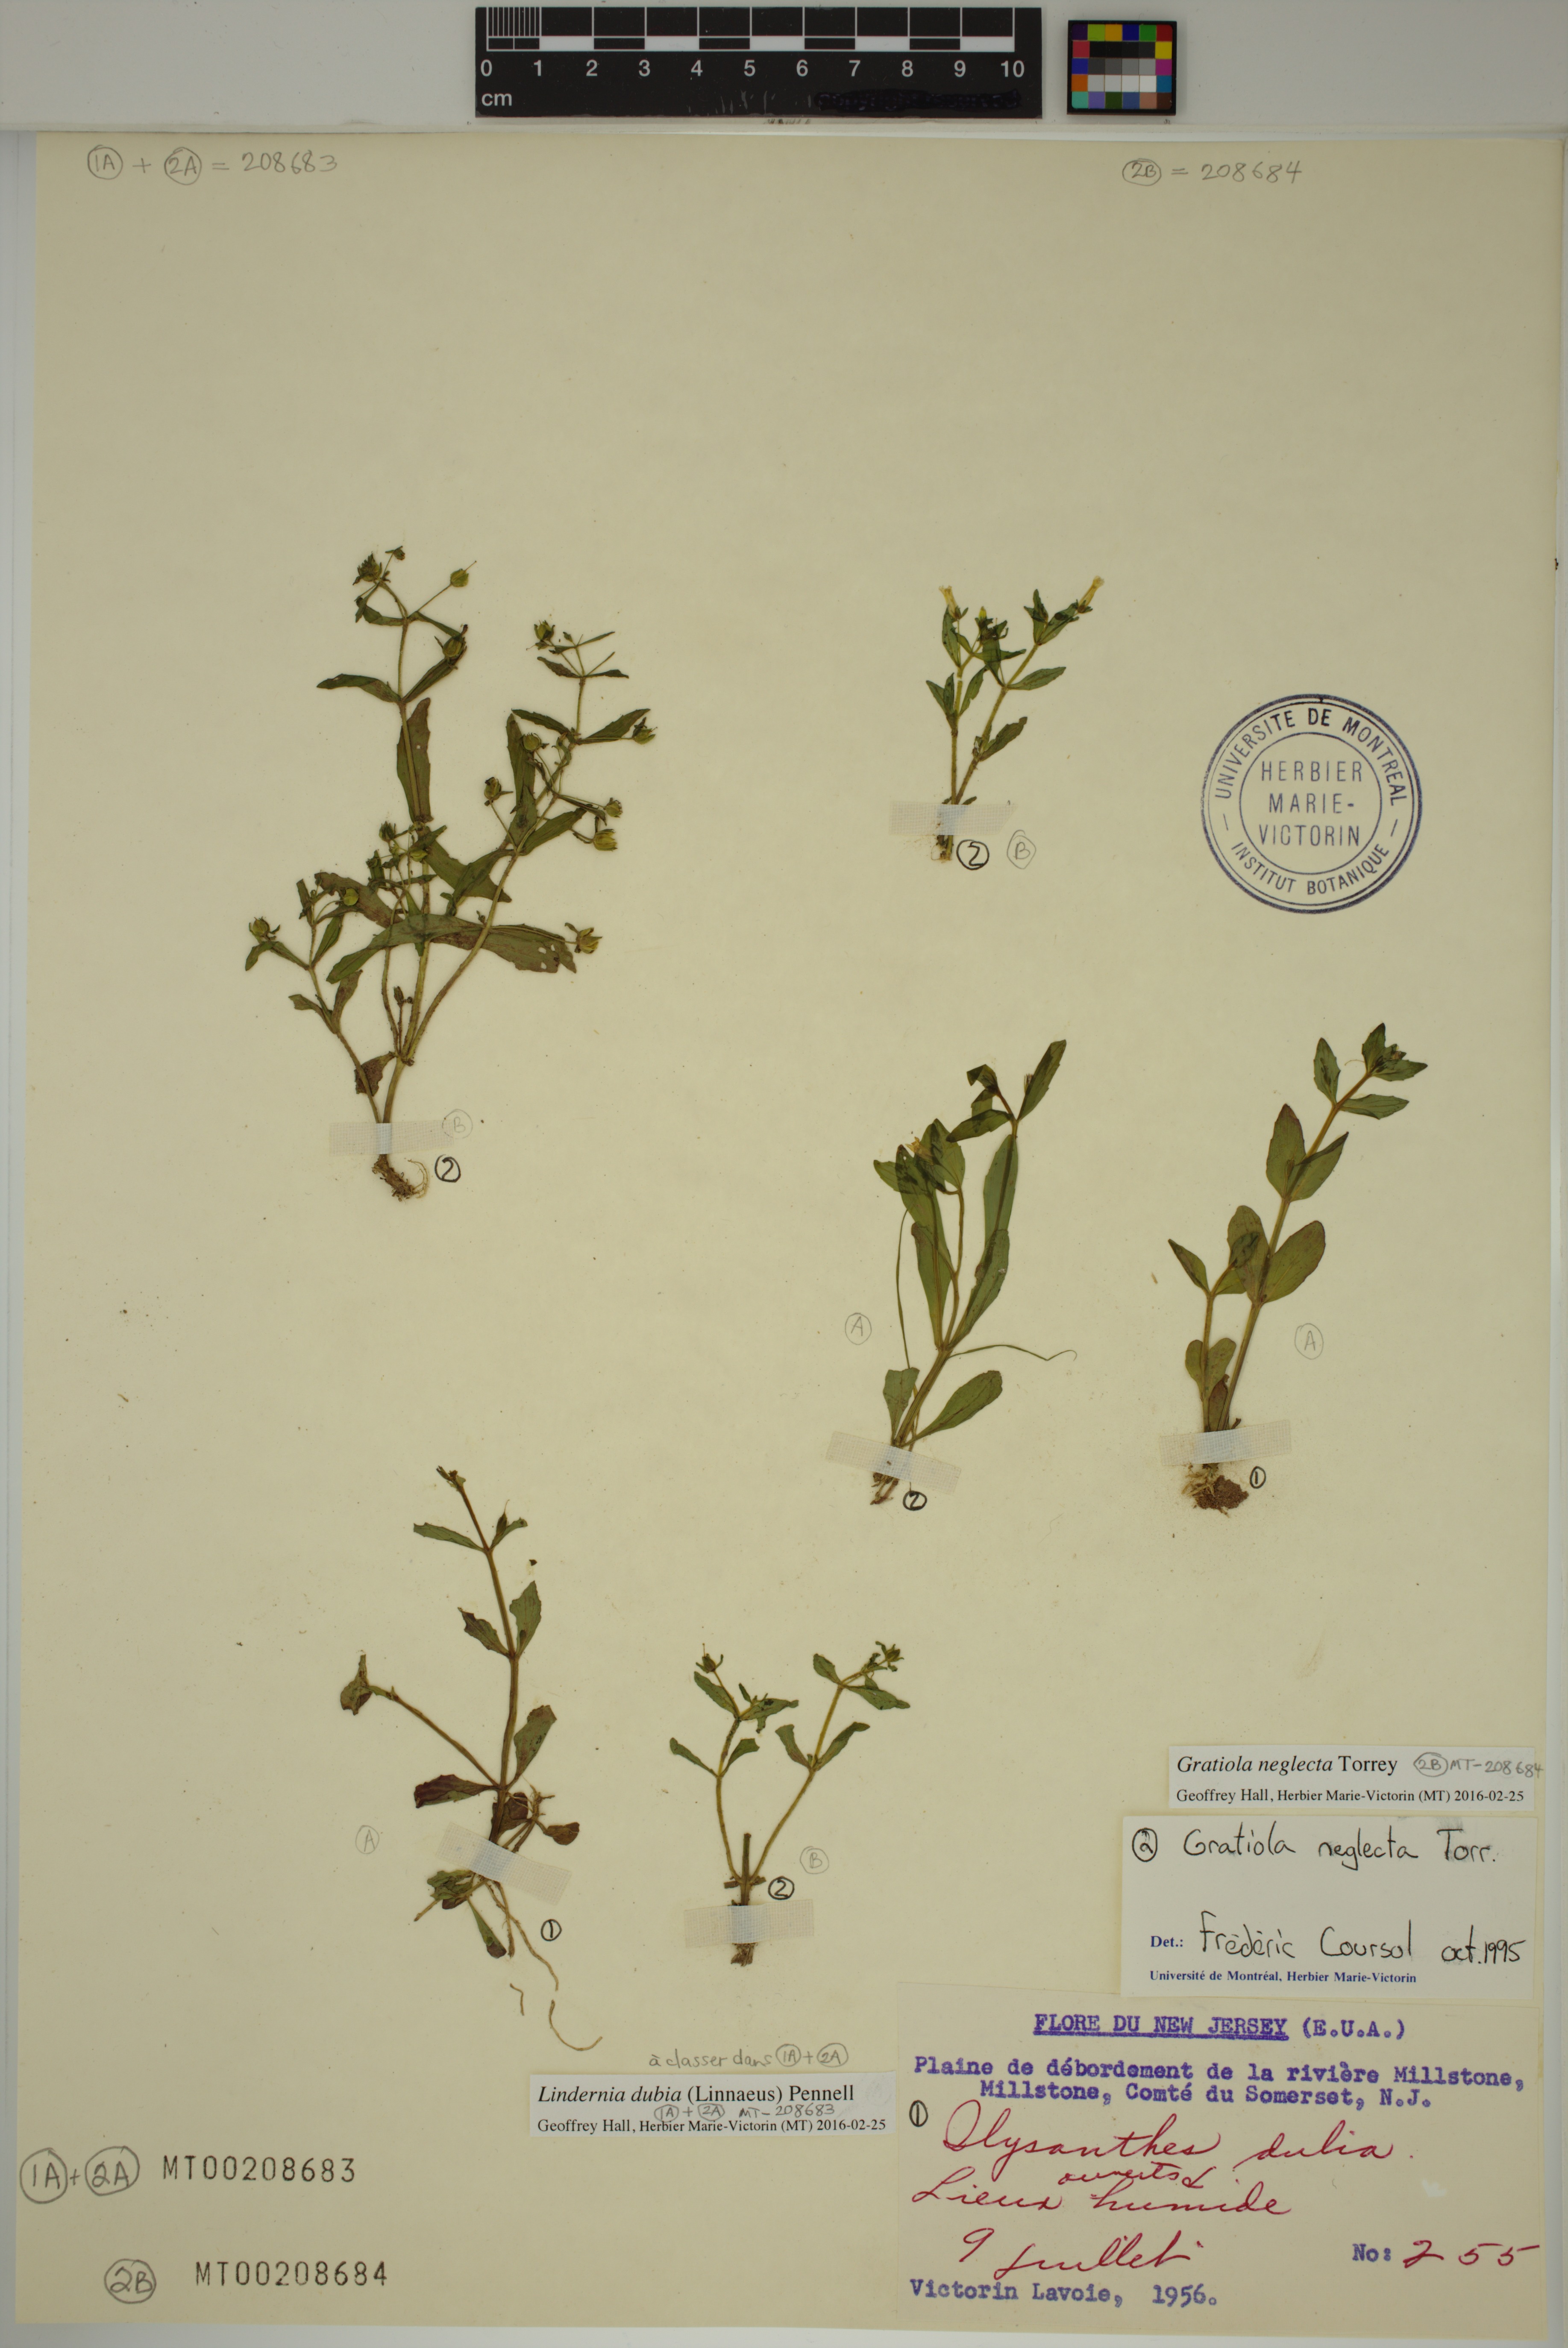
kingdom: Plantae
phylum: Tracheophyta
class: Magnoliopsida
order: Lamiales
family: Linderniaceae
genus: Lindernia
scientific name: Lindernia dubia
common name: Annual false pimpernel
